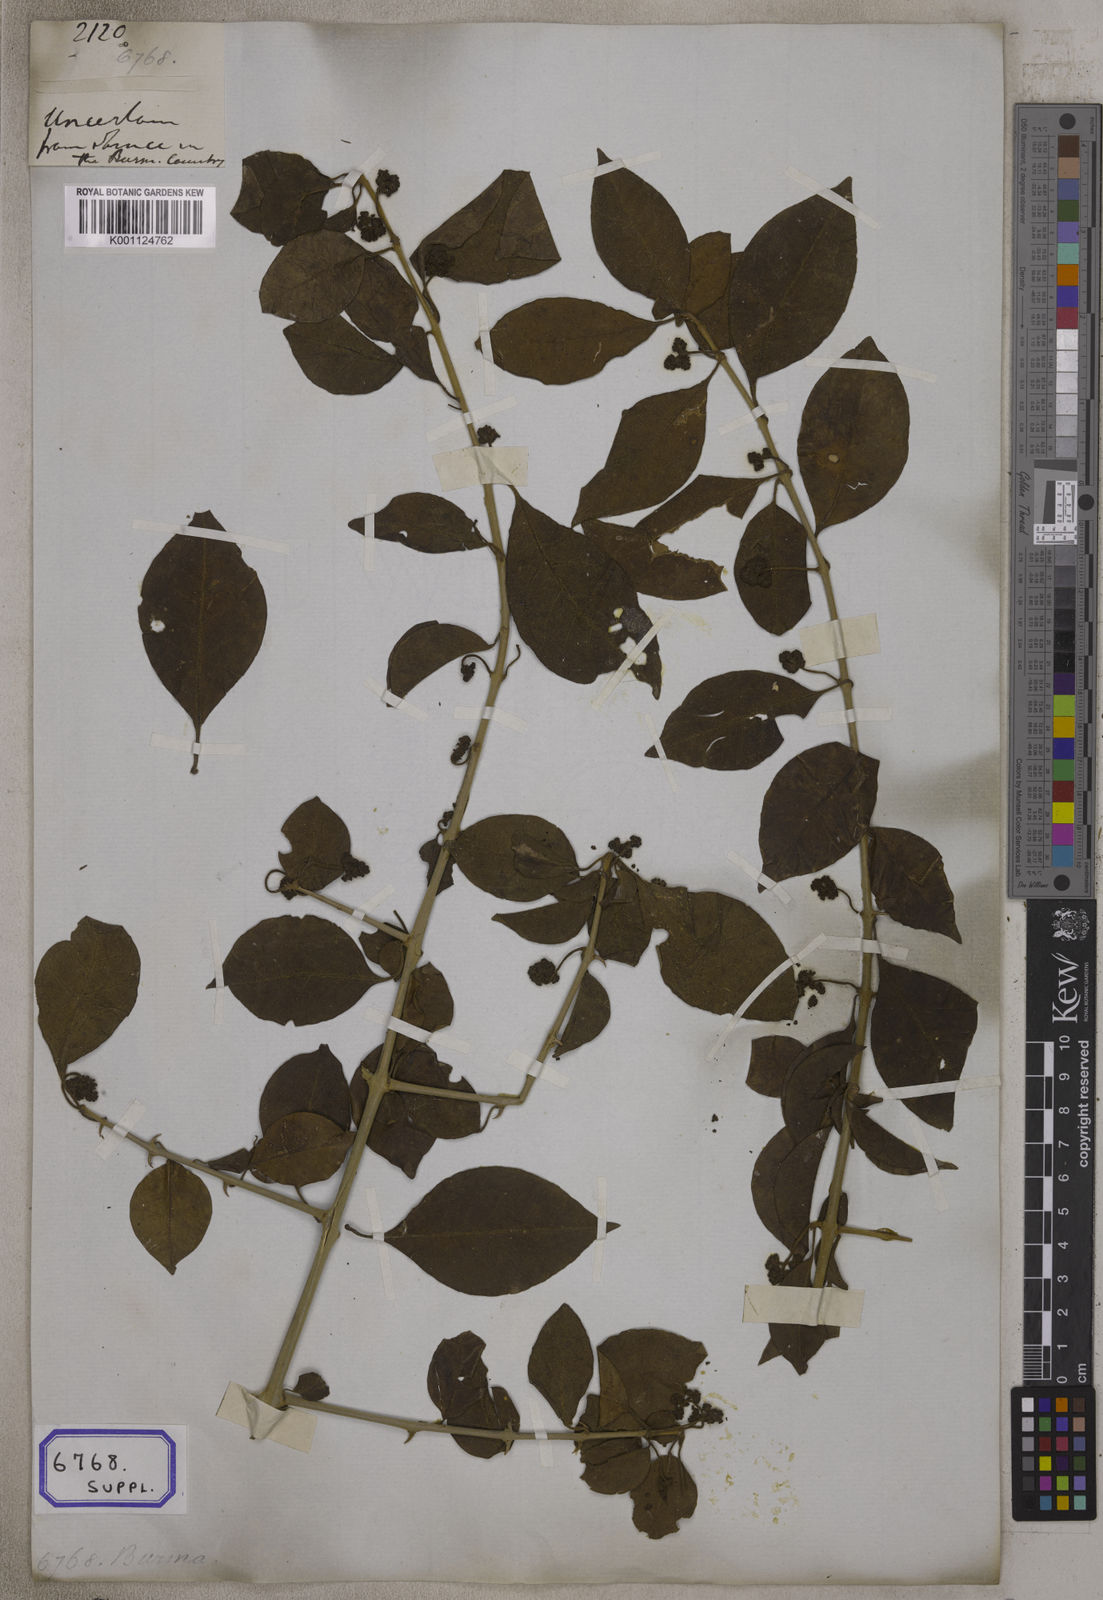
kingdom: Plantae
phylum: Tracheophyta
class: Magnoliopsida
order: Caryophyllales
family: Nyctaginaceae
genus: Pisonia
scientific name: Pisonia aculeata
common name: Cockspur vine
